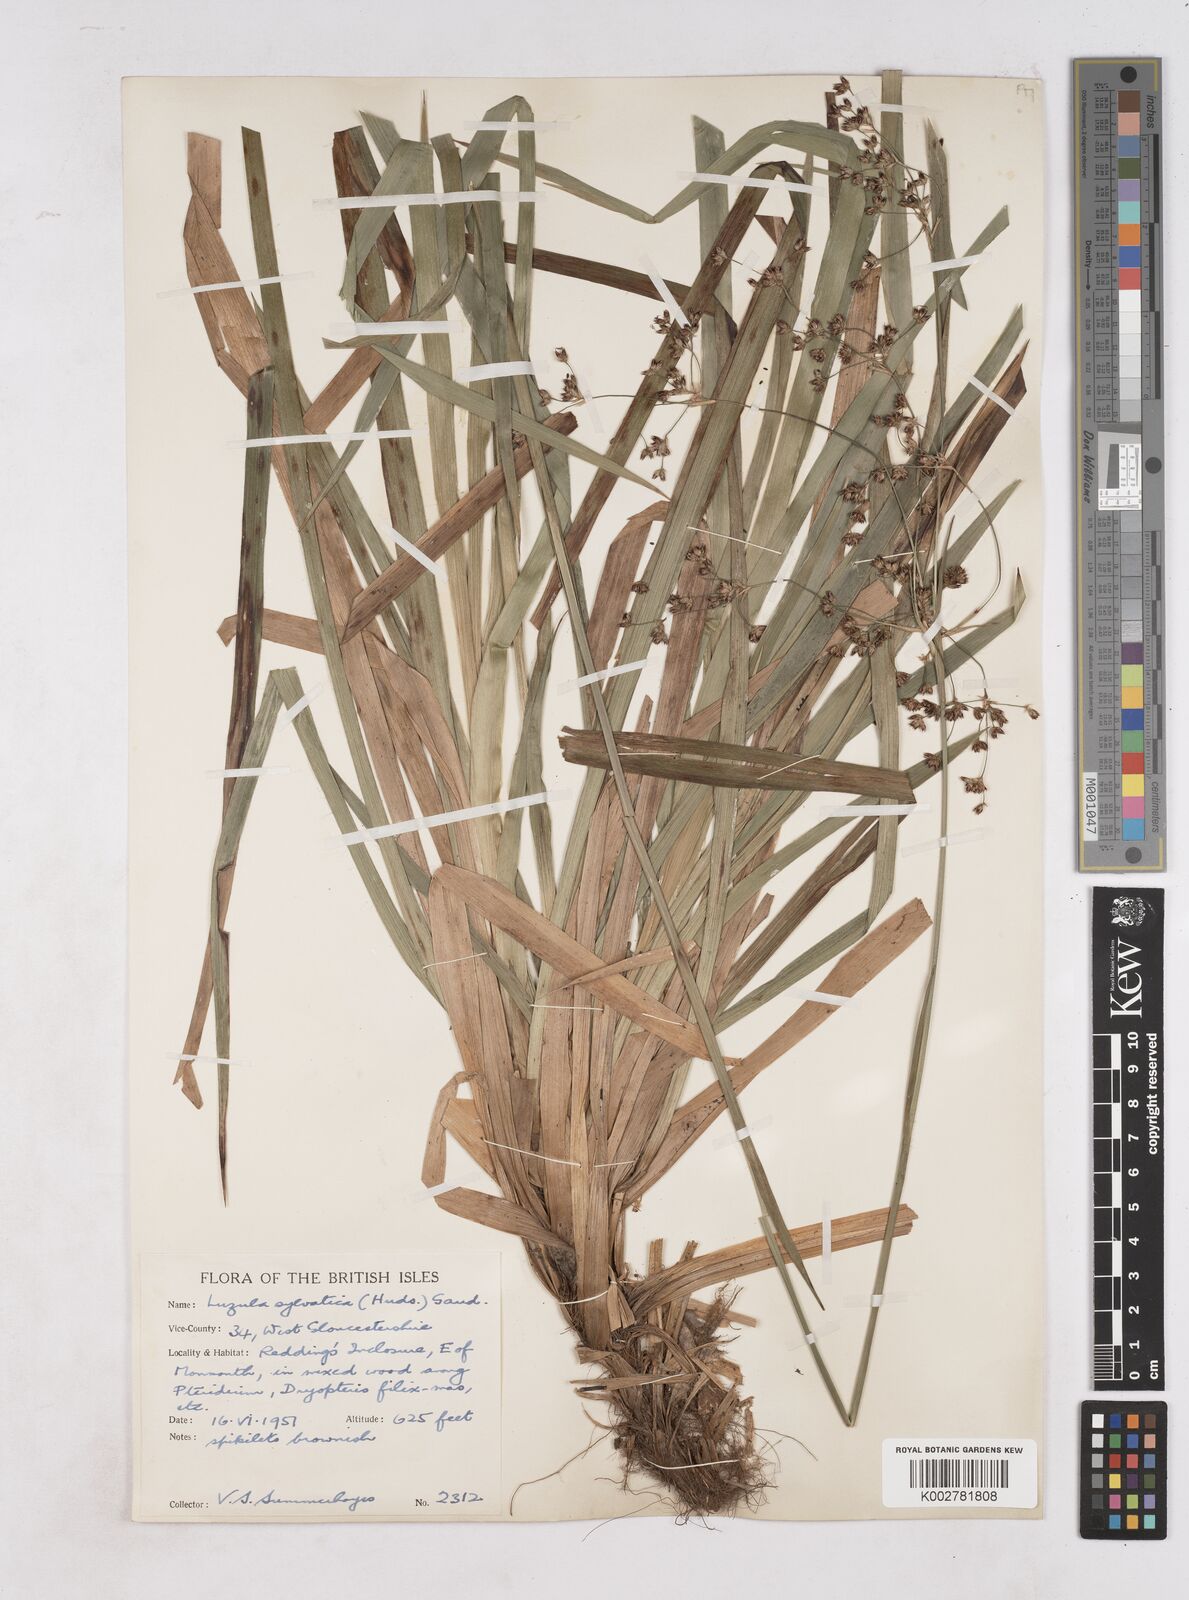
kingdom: Plantae
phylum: Tracheophyta
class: Liliopsida
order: Poales
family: Juncaceae
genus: Luzula
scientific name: Luzula sylvatica
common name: Great wood-rush
